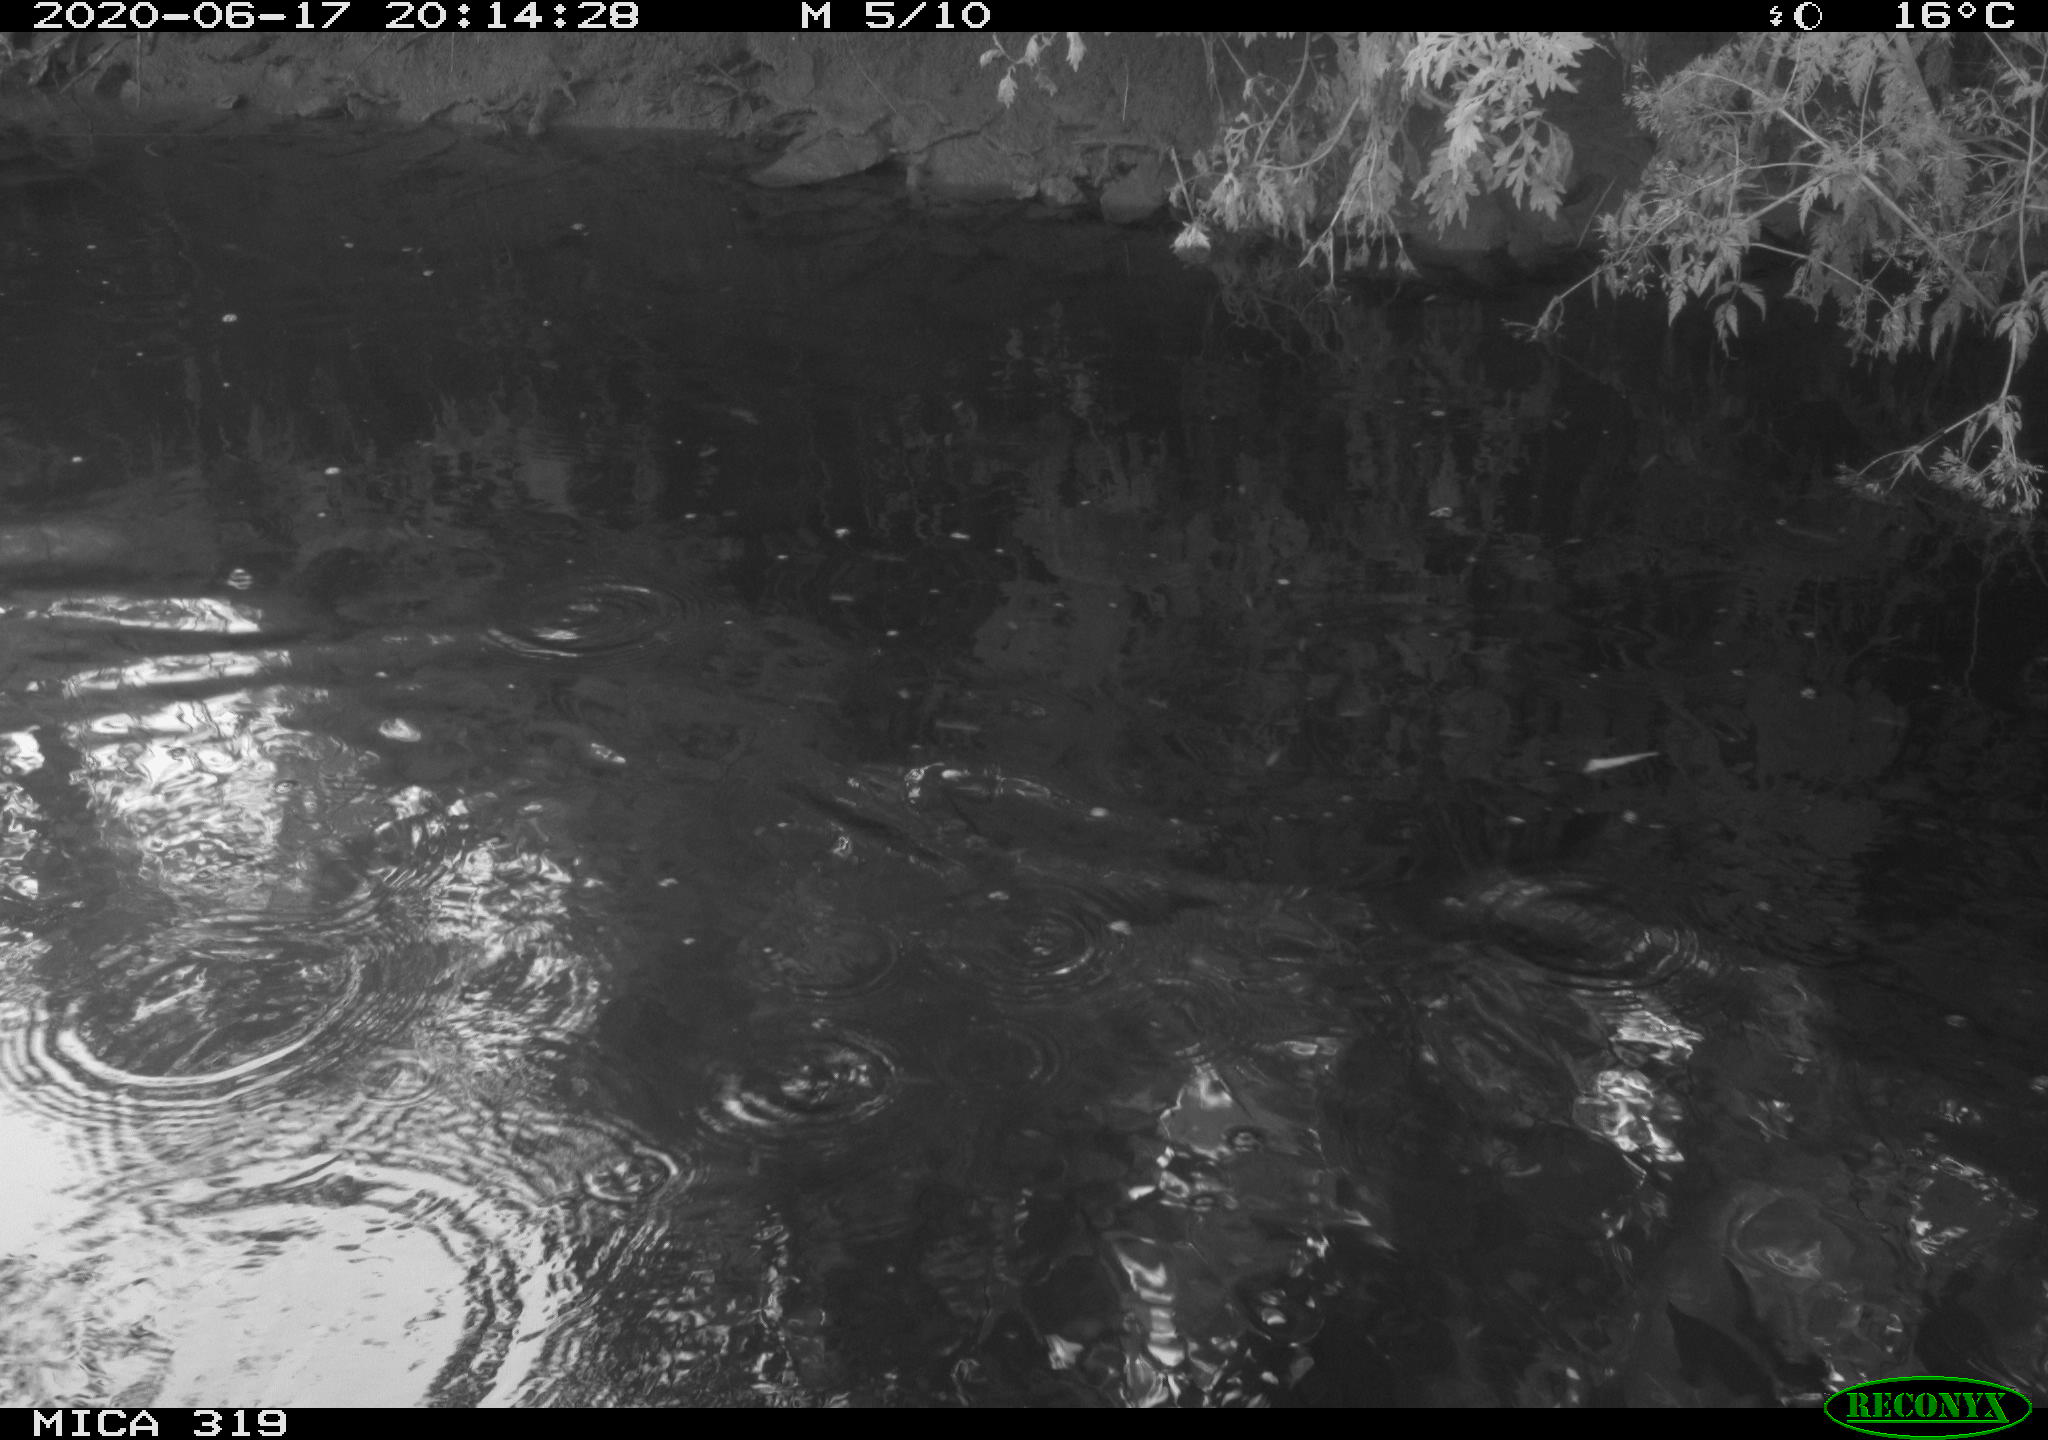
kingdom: Animalia
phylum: Chordata
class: Aves
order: Anseriformes
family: Anatidae
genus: Anas
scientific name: Anas platyrhynchos
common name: Mallard
